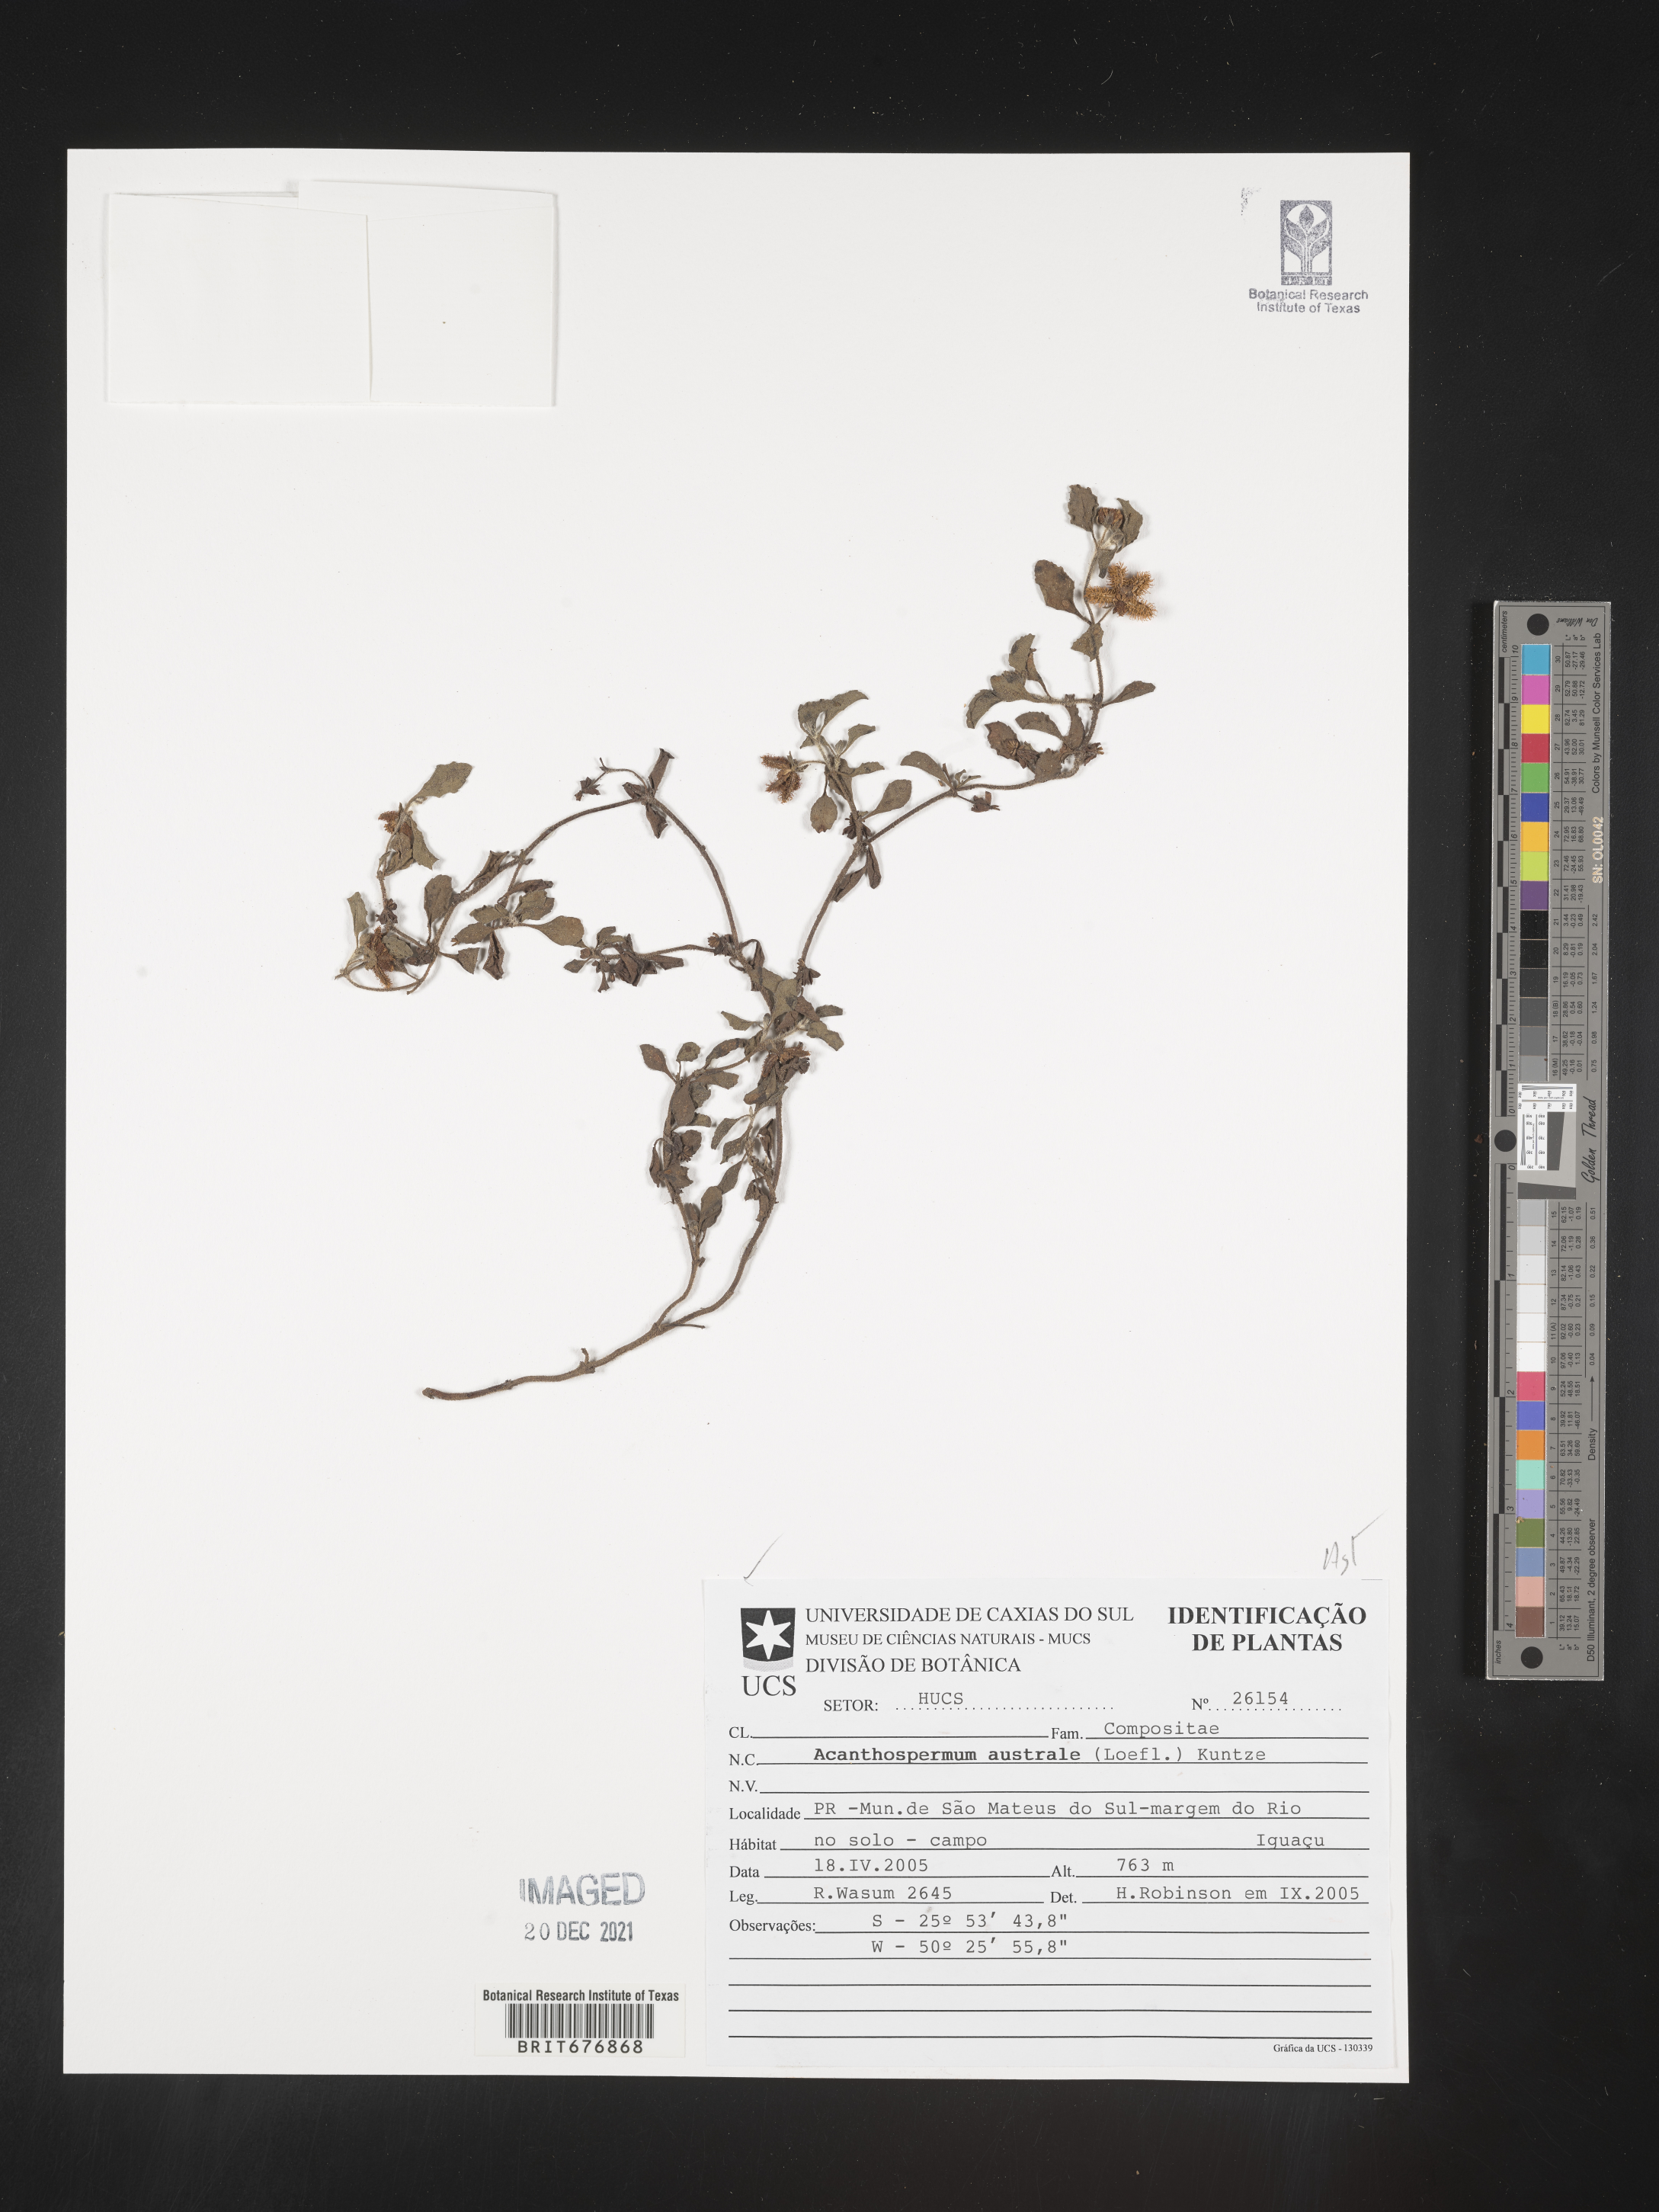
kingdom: Plantae
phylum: Tracheophyta
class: Magnoliopsida
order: Asterales
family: Asteraceae
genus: Acanthospermum
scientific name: Acanthospermum
